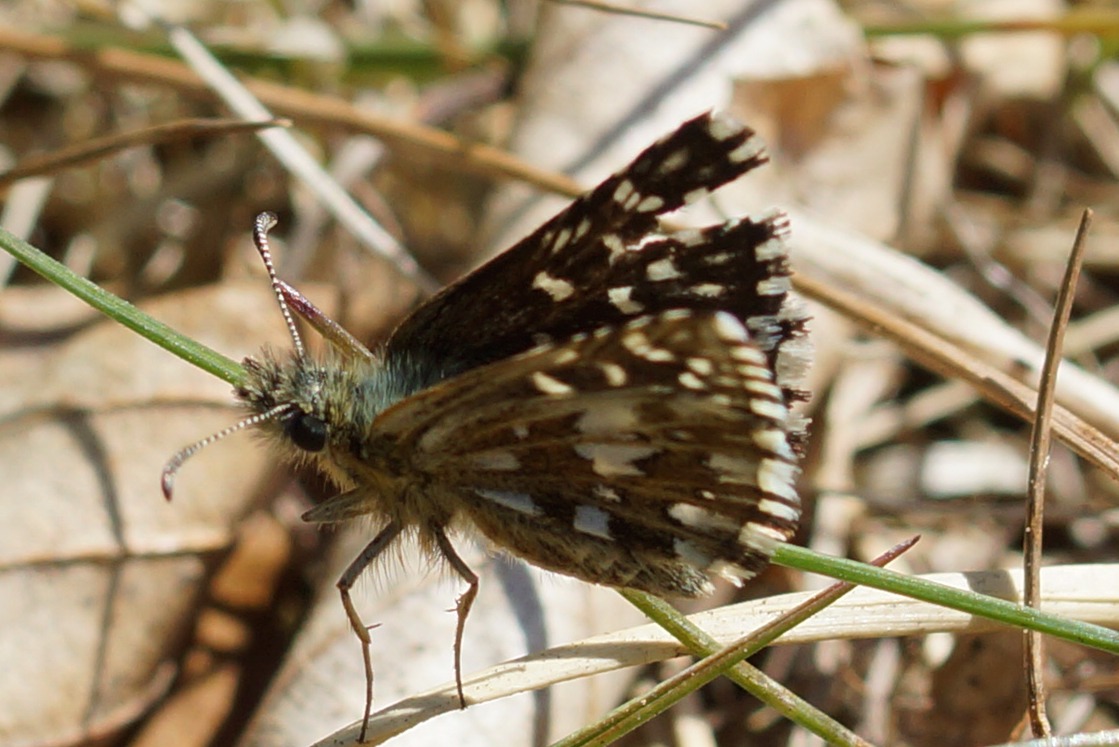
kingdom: Animalia
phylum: Arthropoda
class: Insecta
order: Lepidoptera
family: Hesperiidae
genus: Pyrgus
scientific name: Pyrgus malvae
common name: Spættet bredpande
